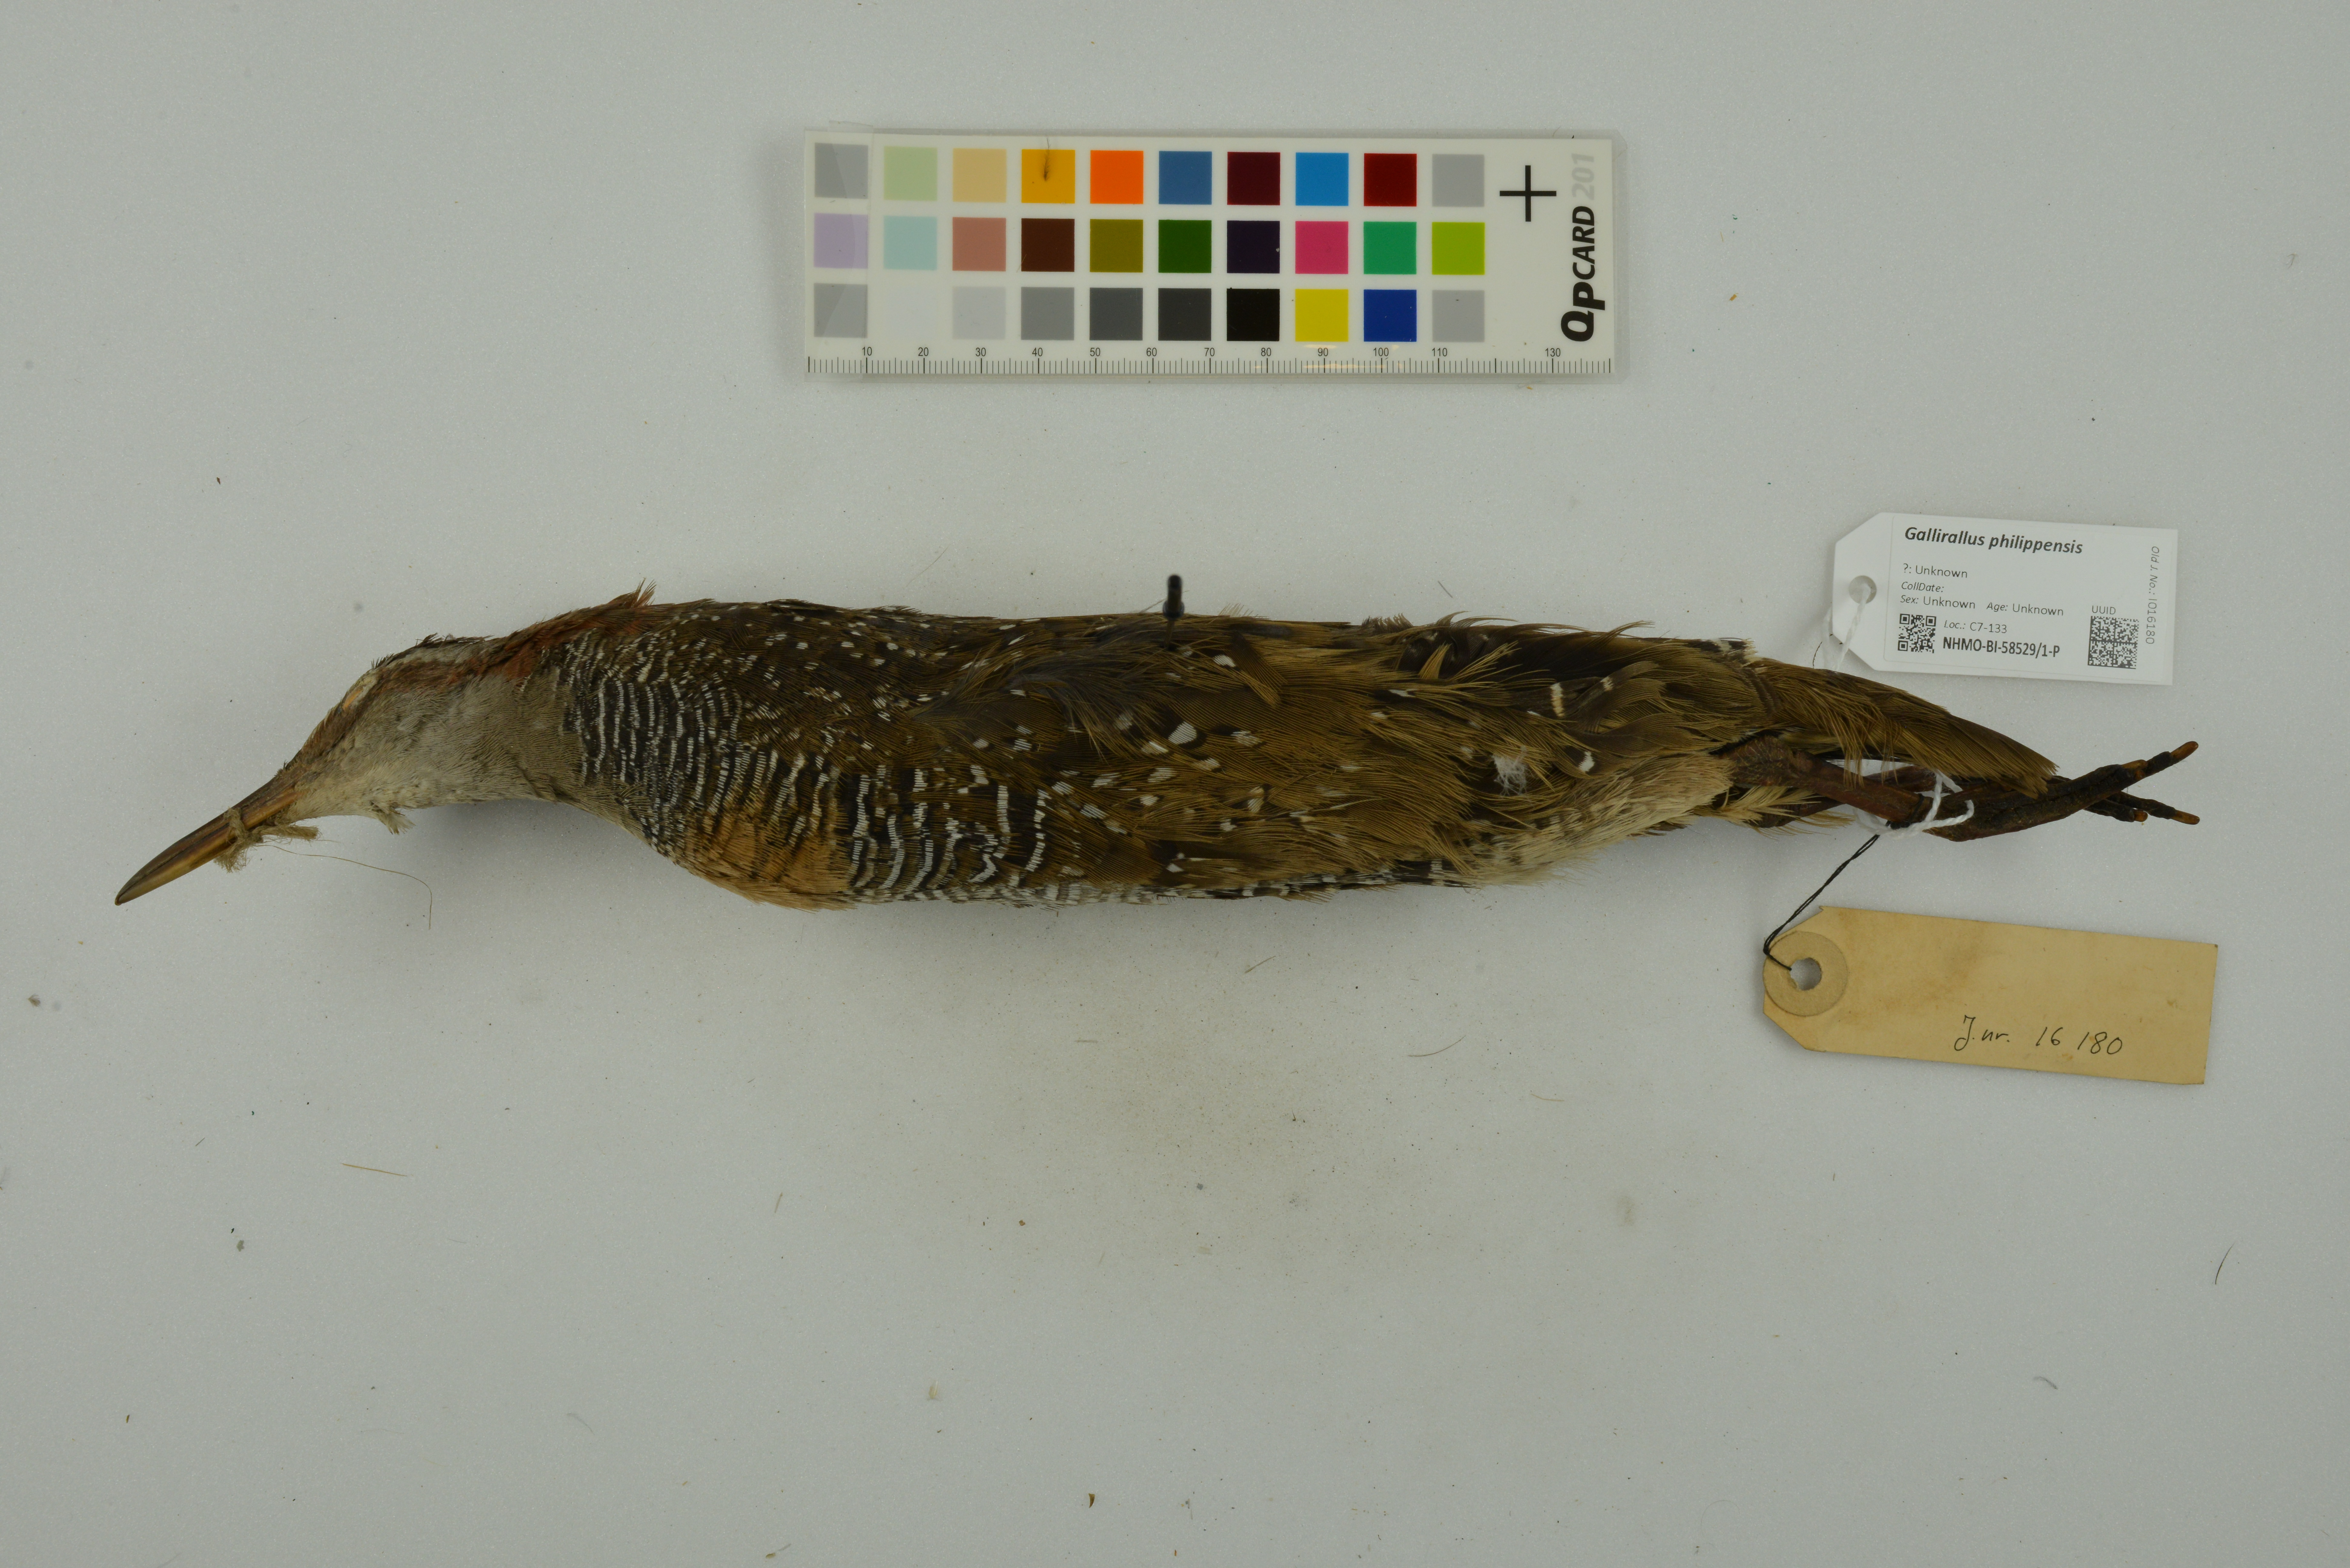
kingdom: Animalia
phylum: Chordata
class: Aves
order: Gruiformes
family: Rallidae
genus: Gallirallus
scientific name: Gallirallus philippensis
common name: Buff-banded rail
